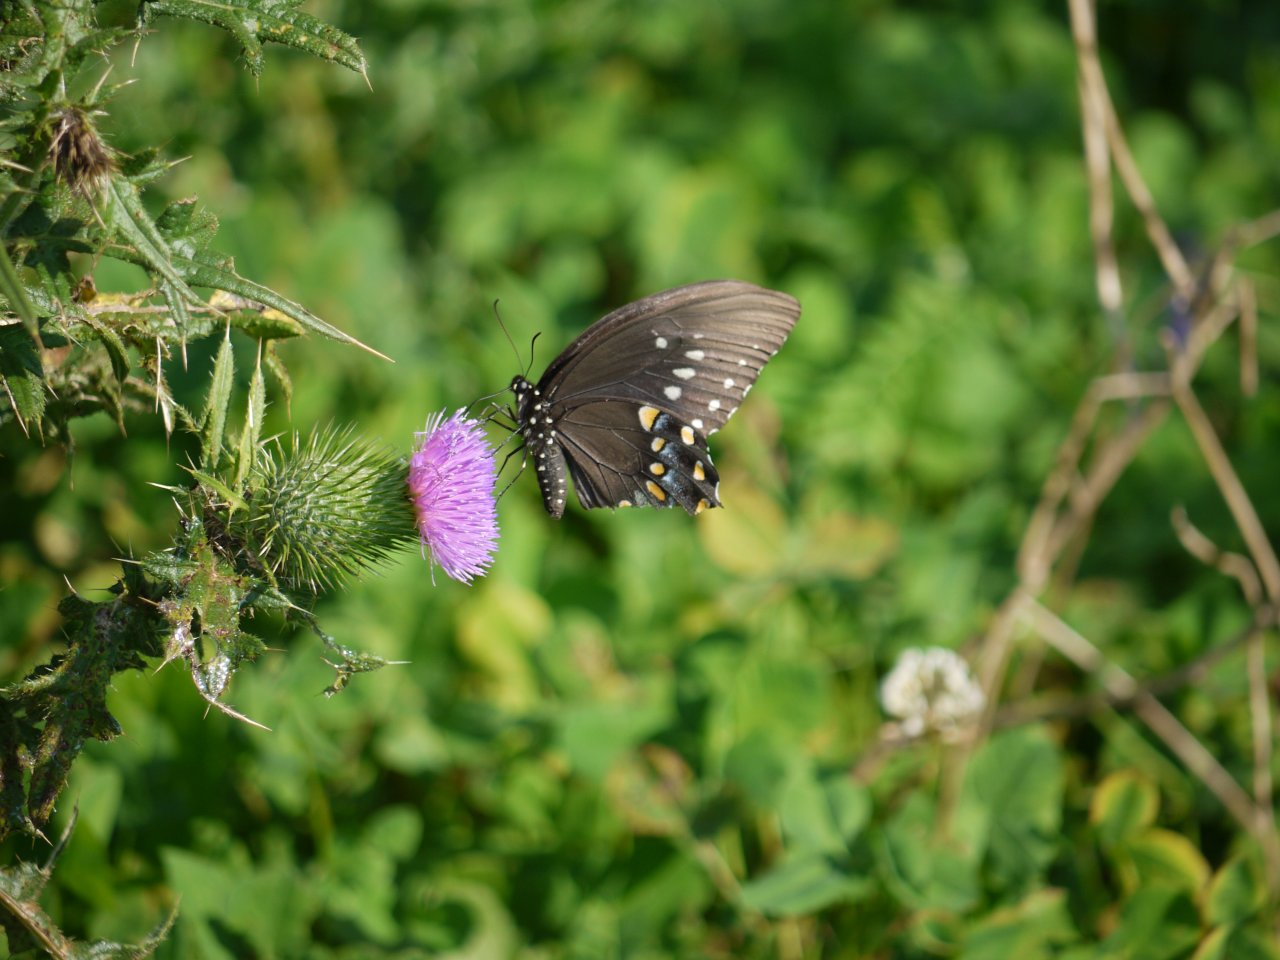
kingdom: Animalia
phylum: Arthropoda
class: Insecta
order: Lepidoptera
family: Papilionidae
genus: Pterourus
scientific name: Pterourus troilus
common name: Spicebush Swallowtail
